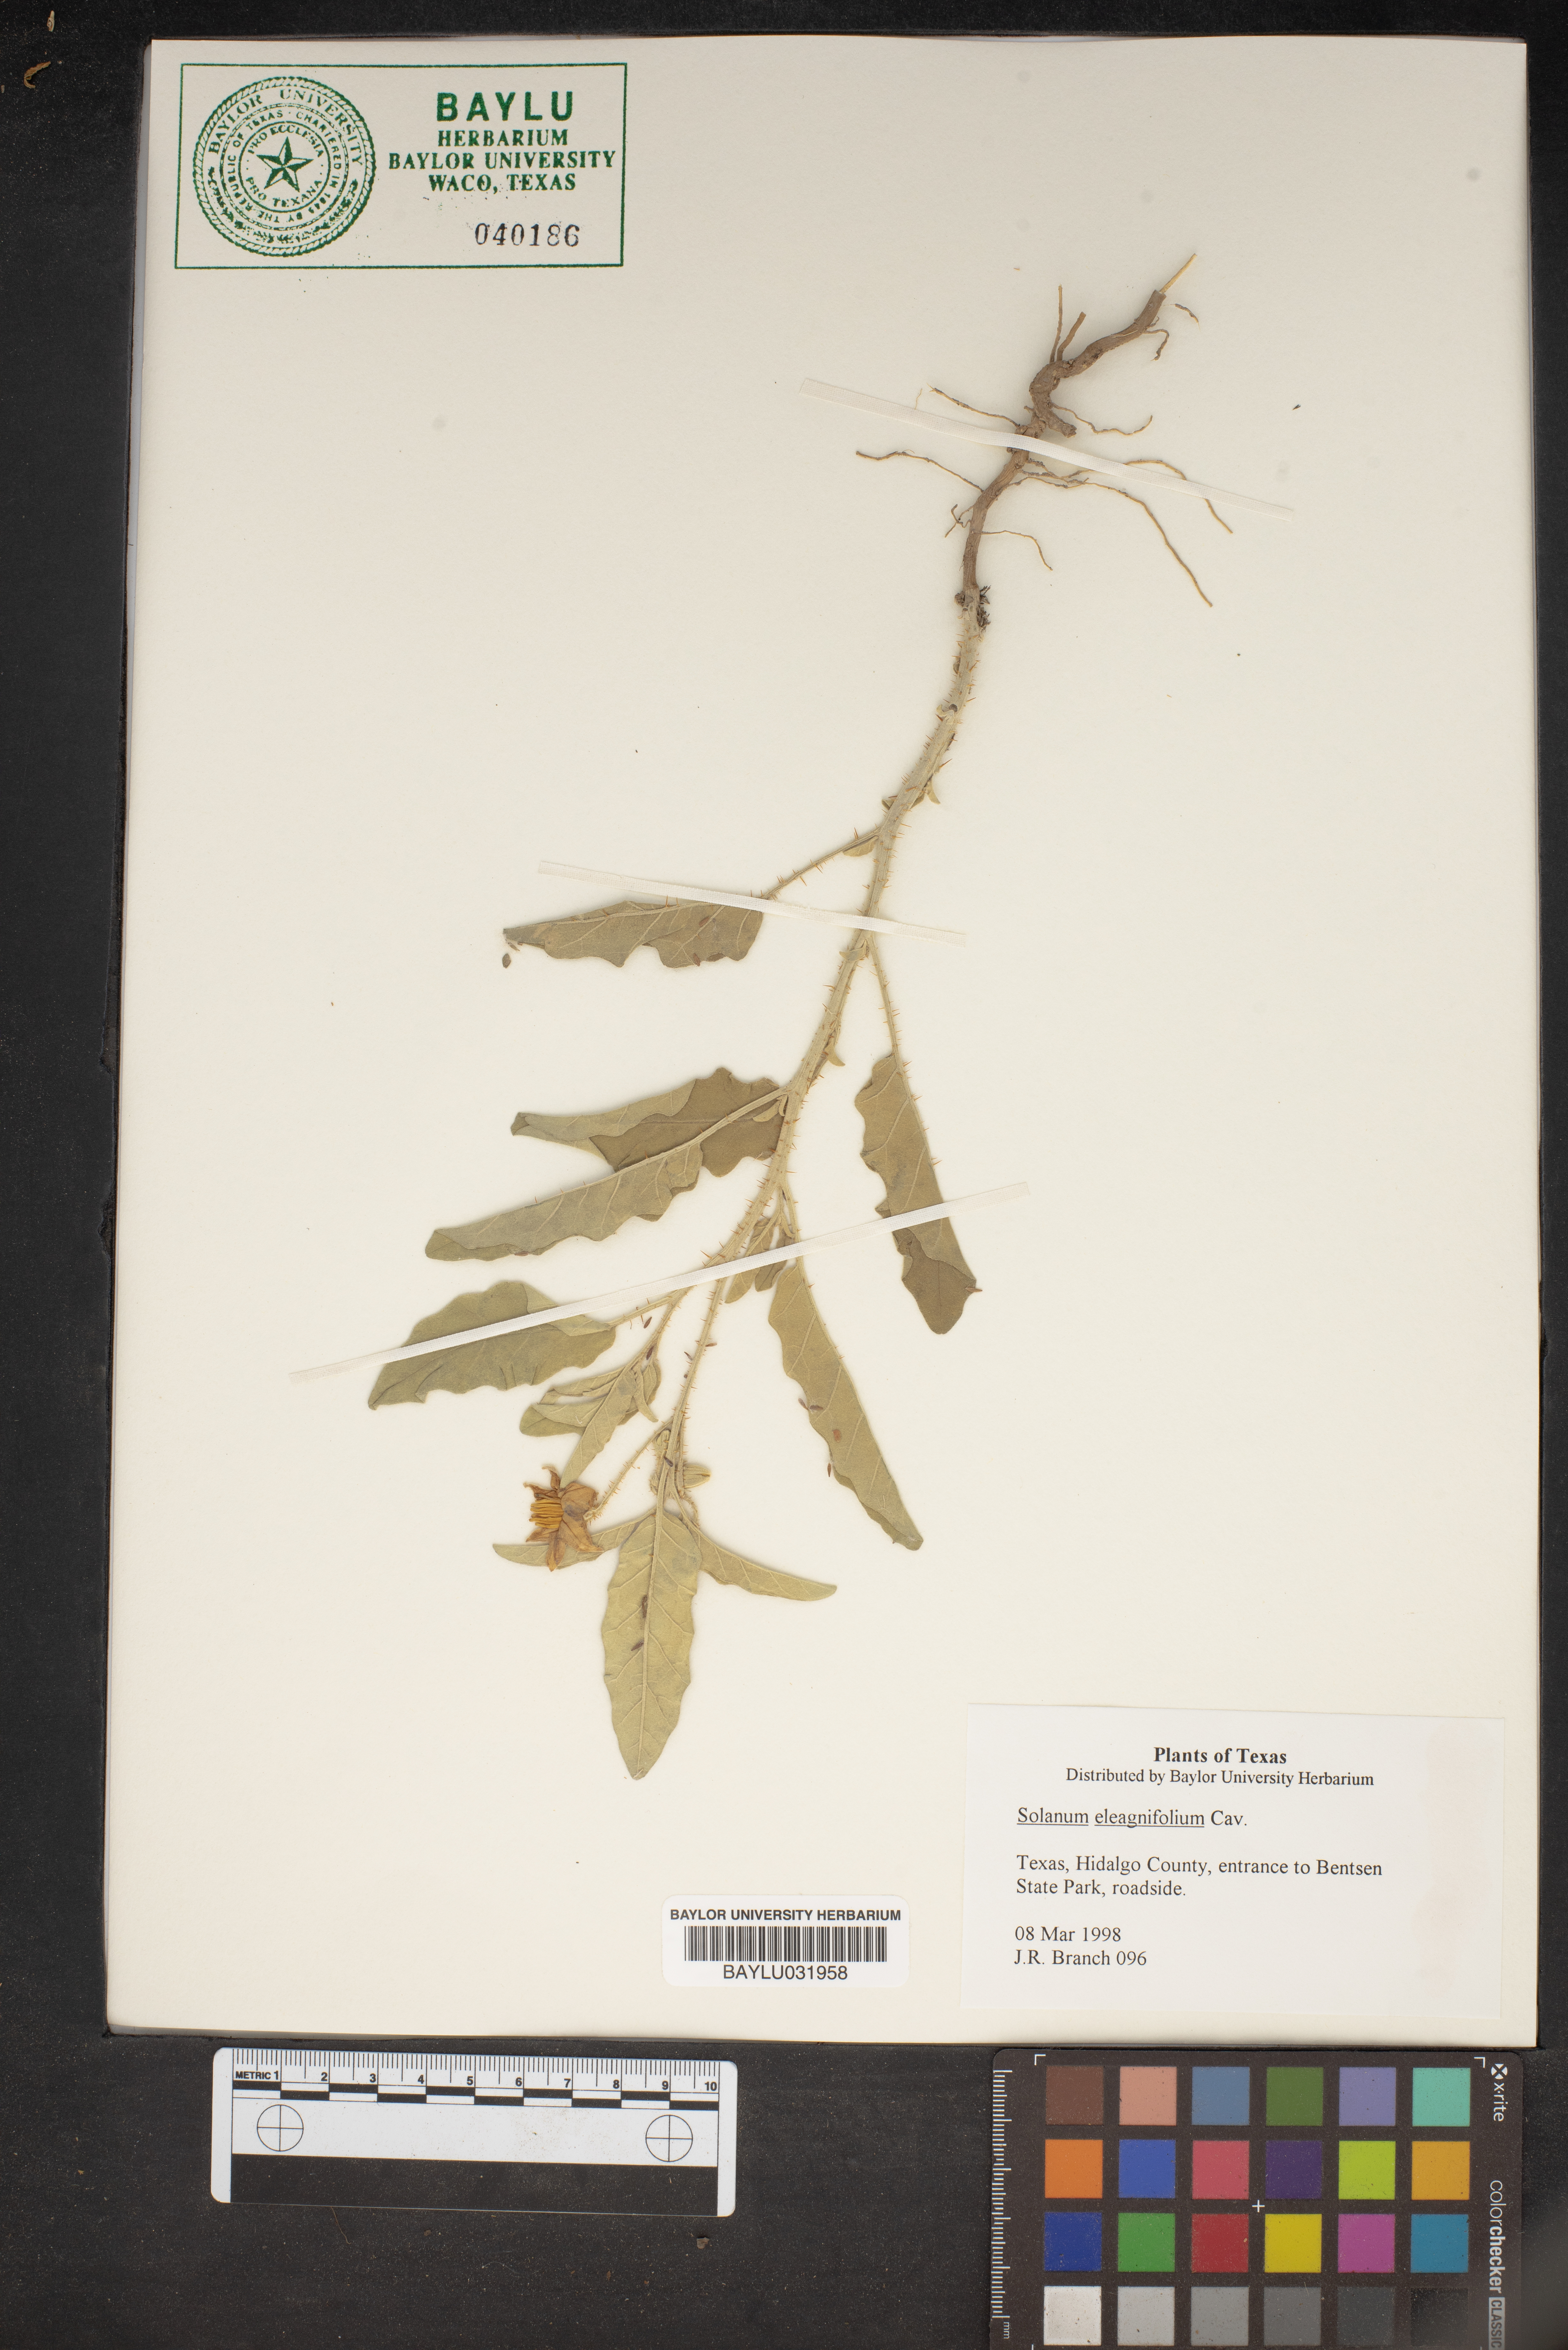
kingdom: Plantae
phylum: Tracheophyta
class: Magnoliopsida
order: Solanales
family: Solanaceae
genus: Solanum
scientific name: Solanum elaeagnifolium
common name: Silverleaf nightshade
